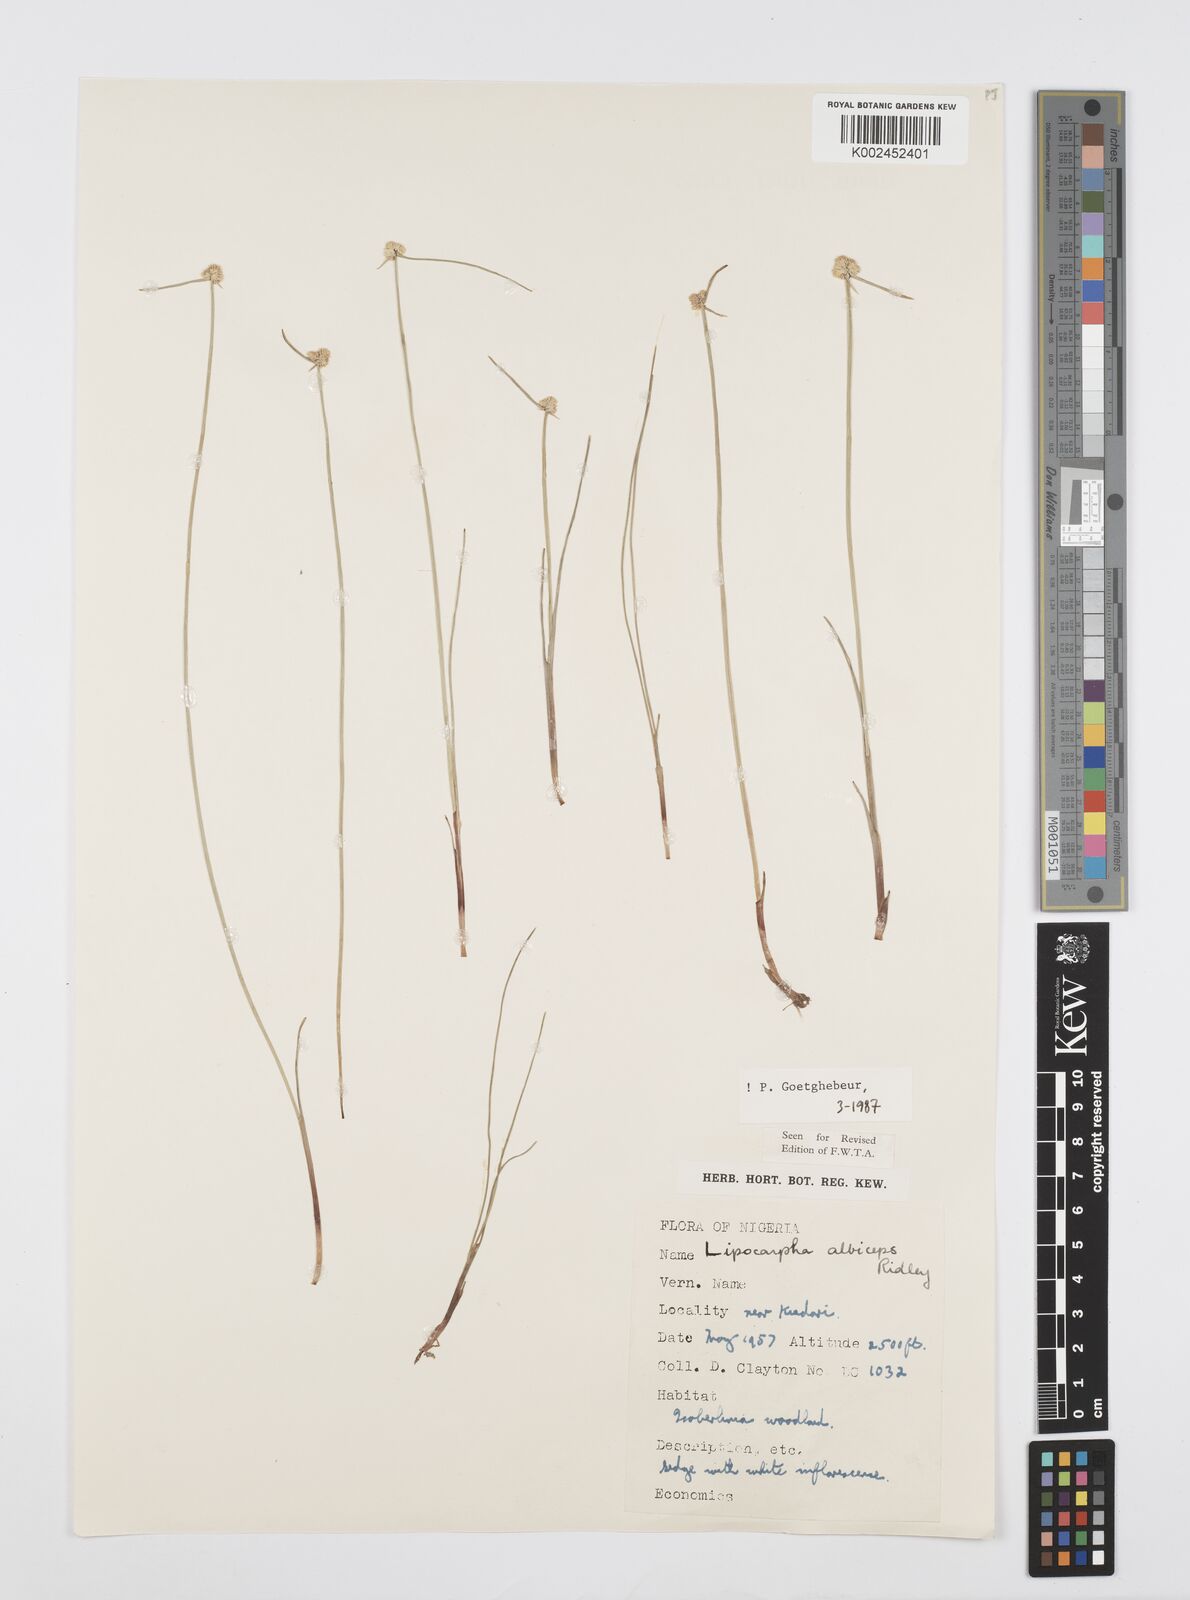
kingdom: Plantae
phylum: Tracheophyta
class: Liliopsida
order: Poales
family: Cyperaceae
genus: Cyperus
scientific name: Cyperus albiceps
